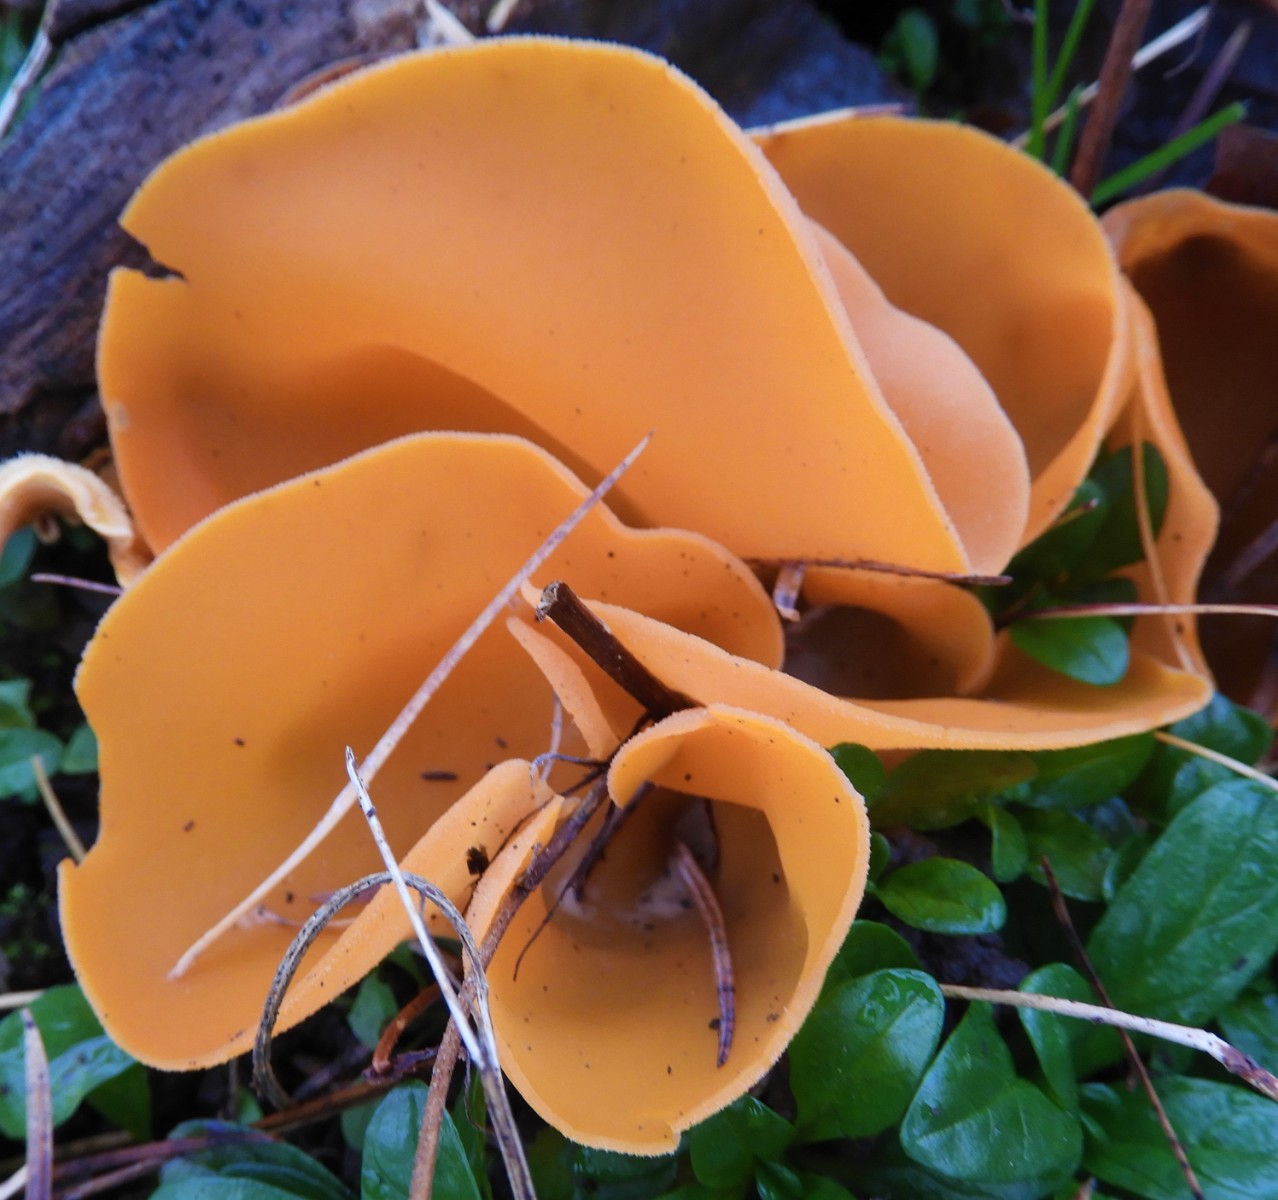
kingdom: Fungi
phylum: Ascomycota
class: Pezizomycetes
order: Pezizales
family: Pyronemataceae
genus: Aleuria
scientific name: Aleuria aurantia
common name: almindelig orangebæger
